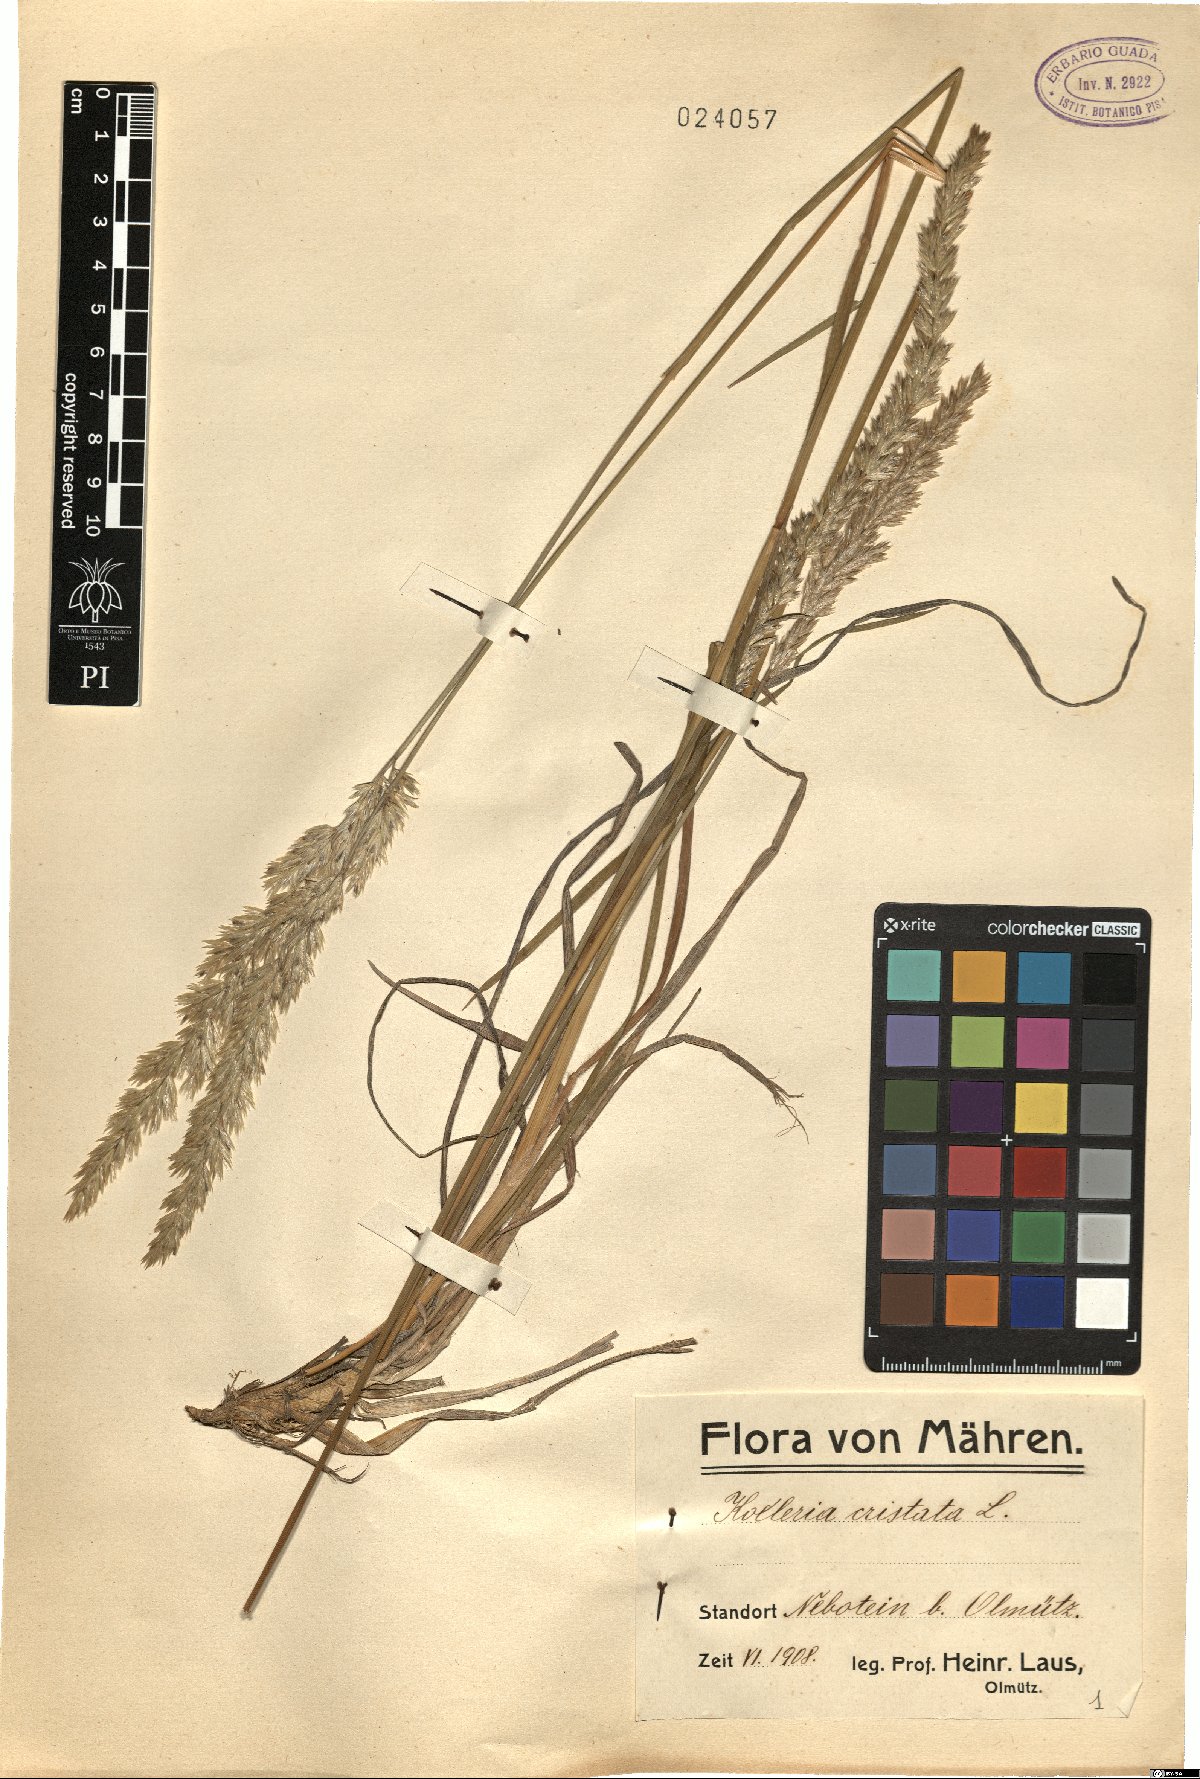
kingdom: Plantae
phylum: Tracheophyta
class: Liliopsida
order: Poales
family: Poaceae
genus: Koeleria
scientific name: Koeleria pyramidata
